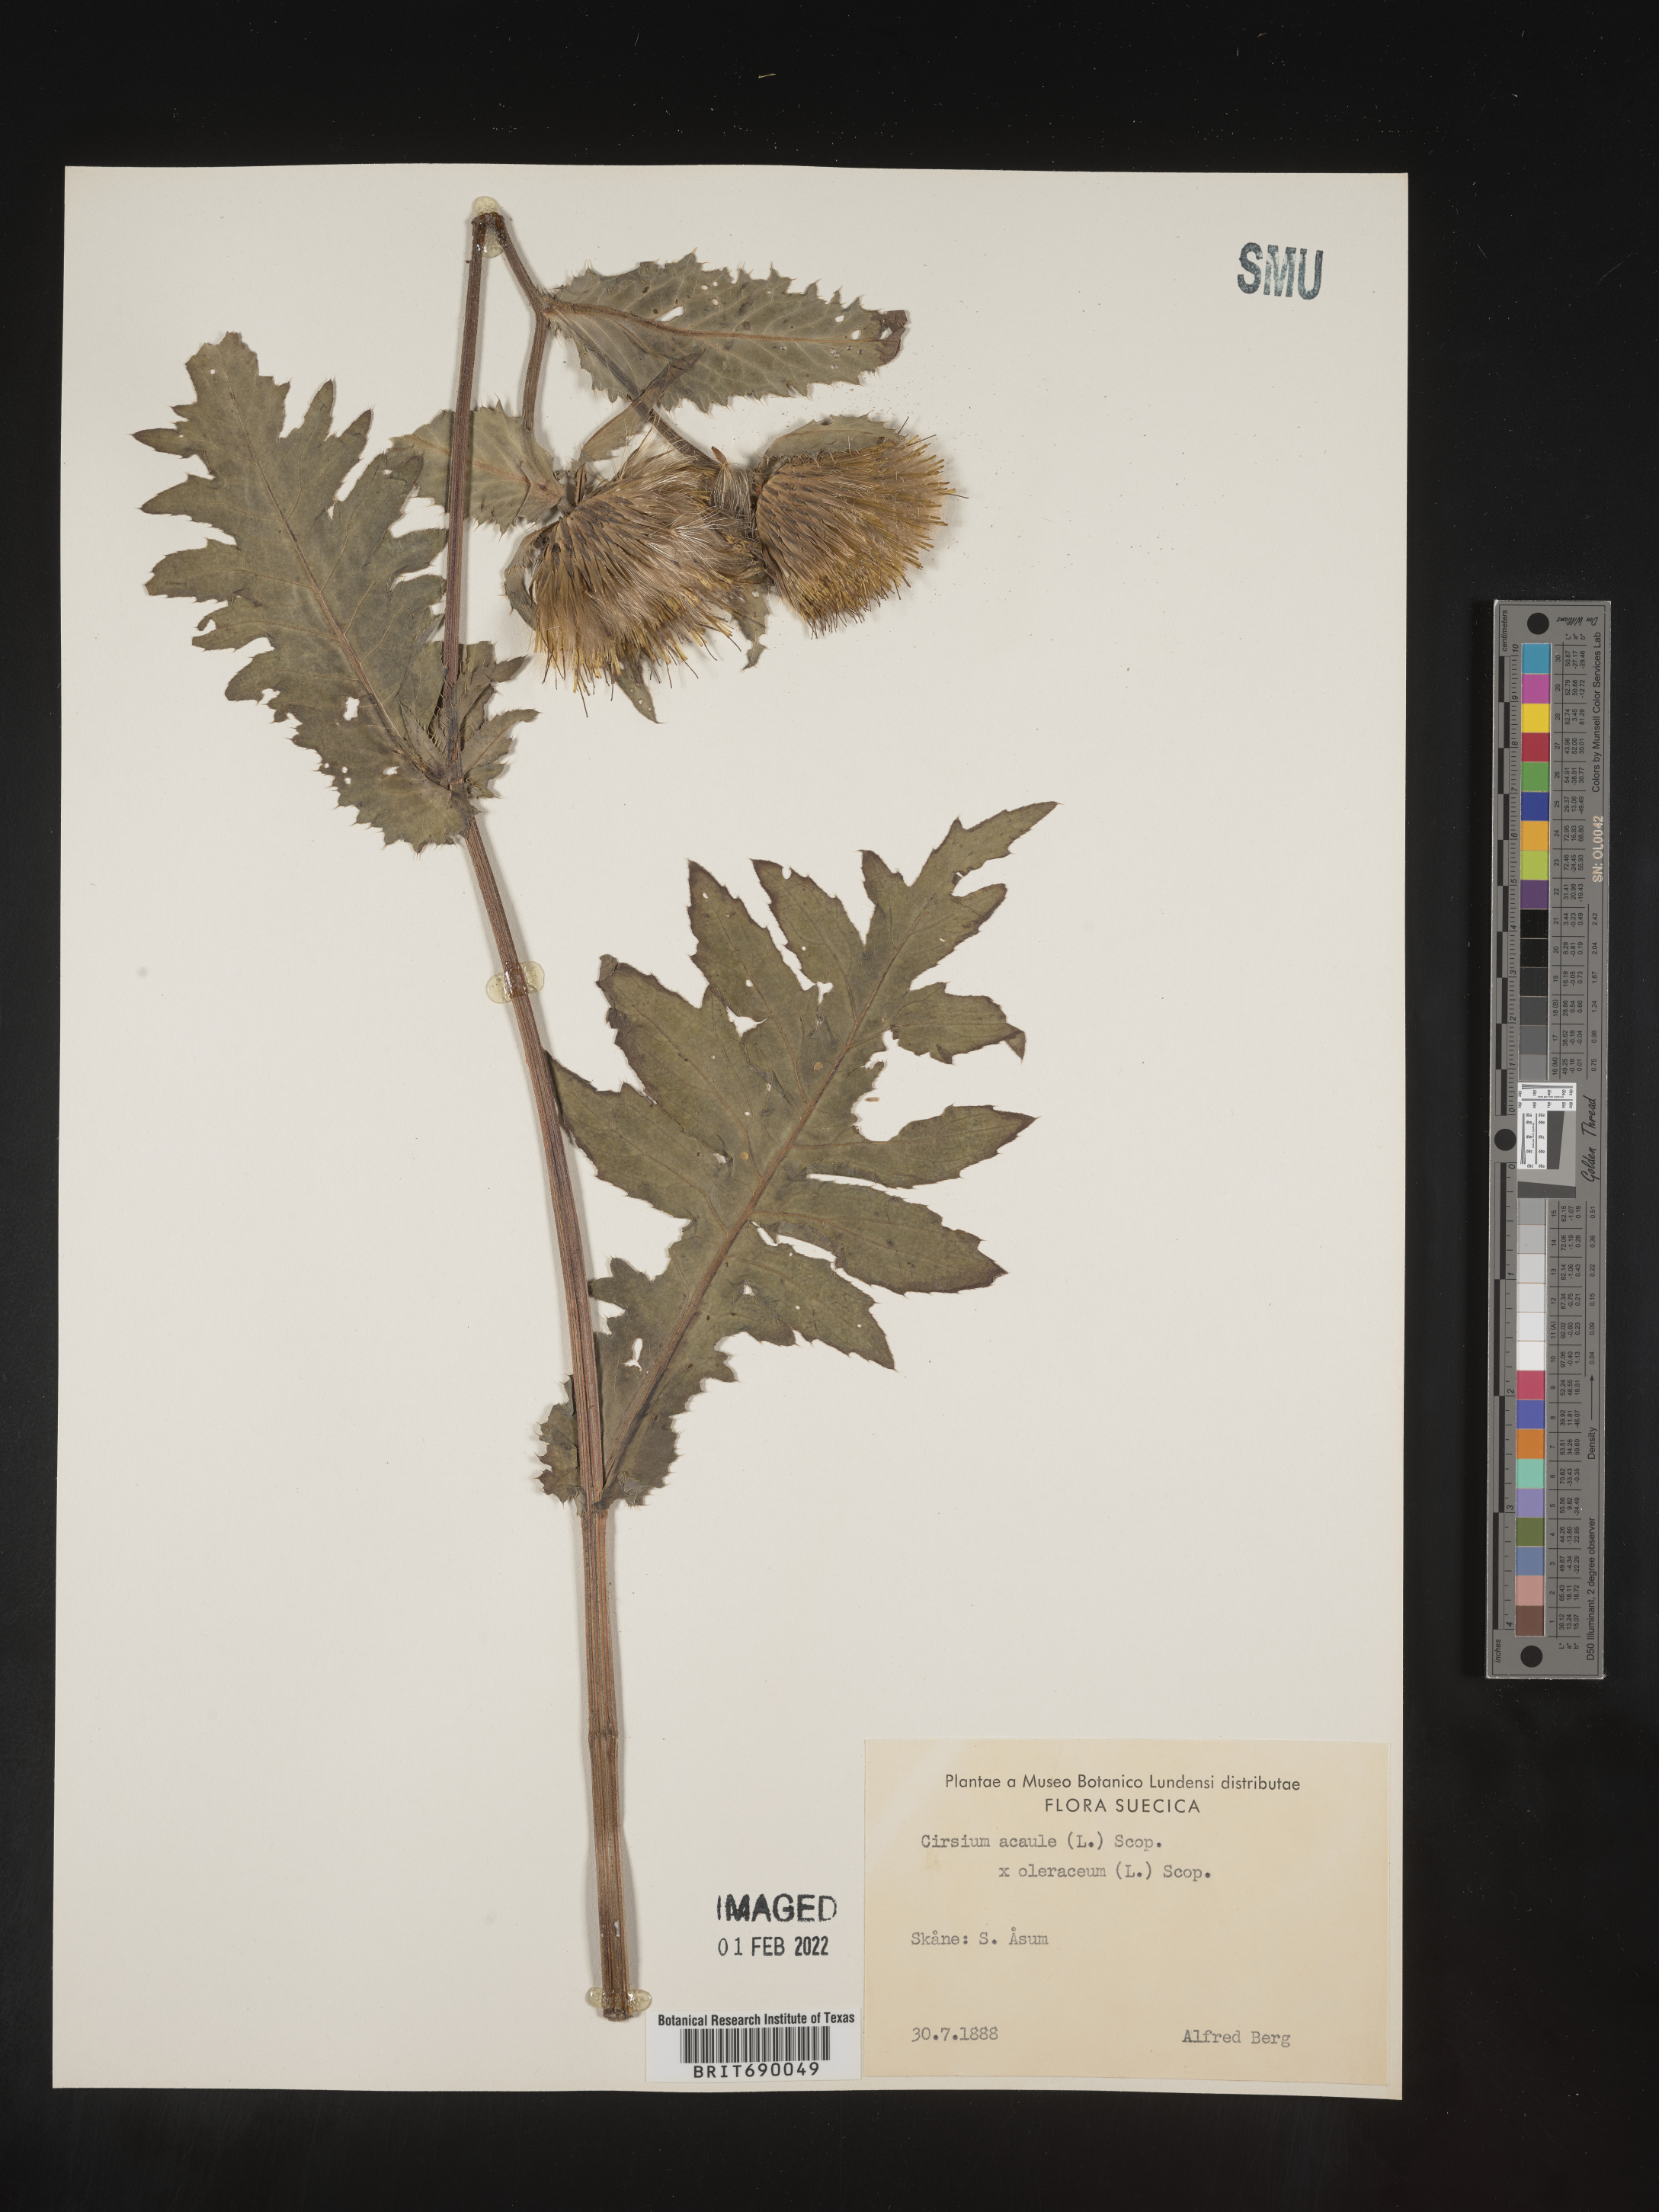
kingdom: Plantae
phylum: Tracheophyta
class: Magnoliopsida
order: Asterales
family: Asteraceae
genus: Cirsium
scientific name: Cirsium
